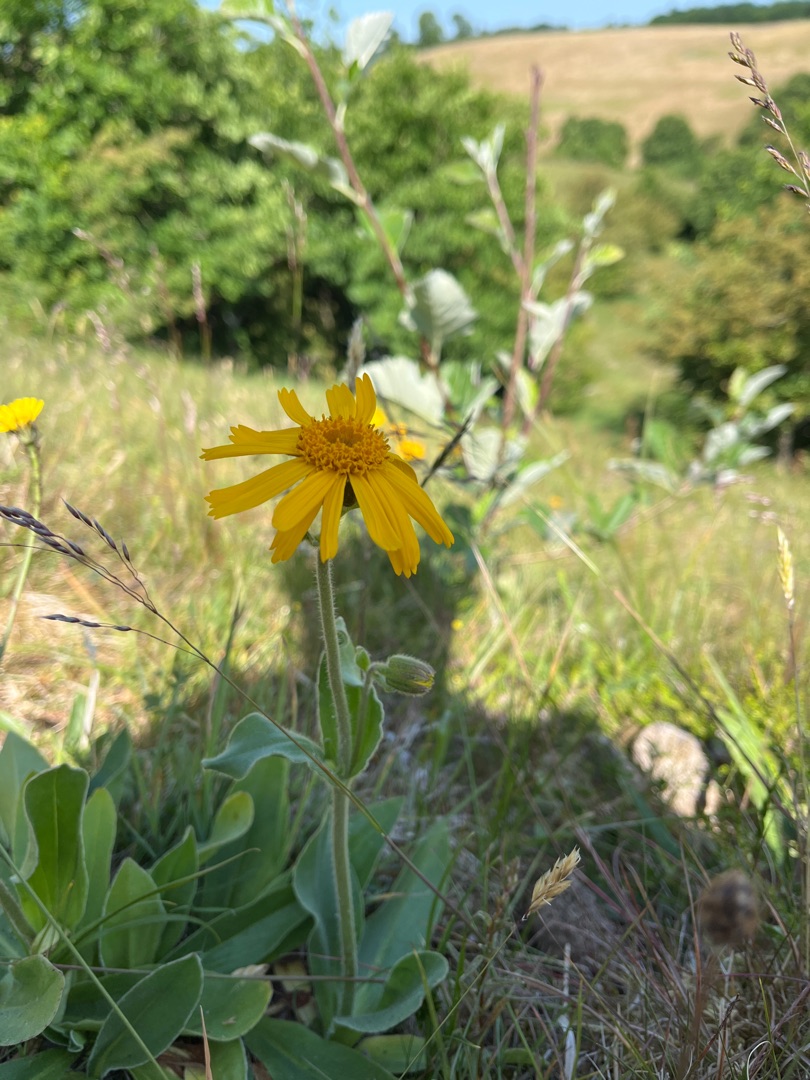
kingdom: Plantae
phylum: Tracheophyta
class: Magnoliopsida
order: Asterales
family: Asteraceae
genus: Arnica
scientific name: Arnica montana
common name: Guldblomme
